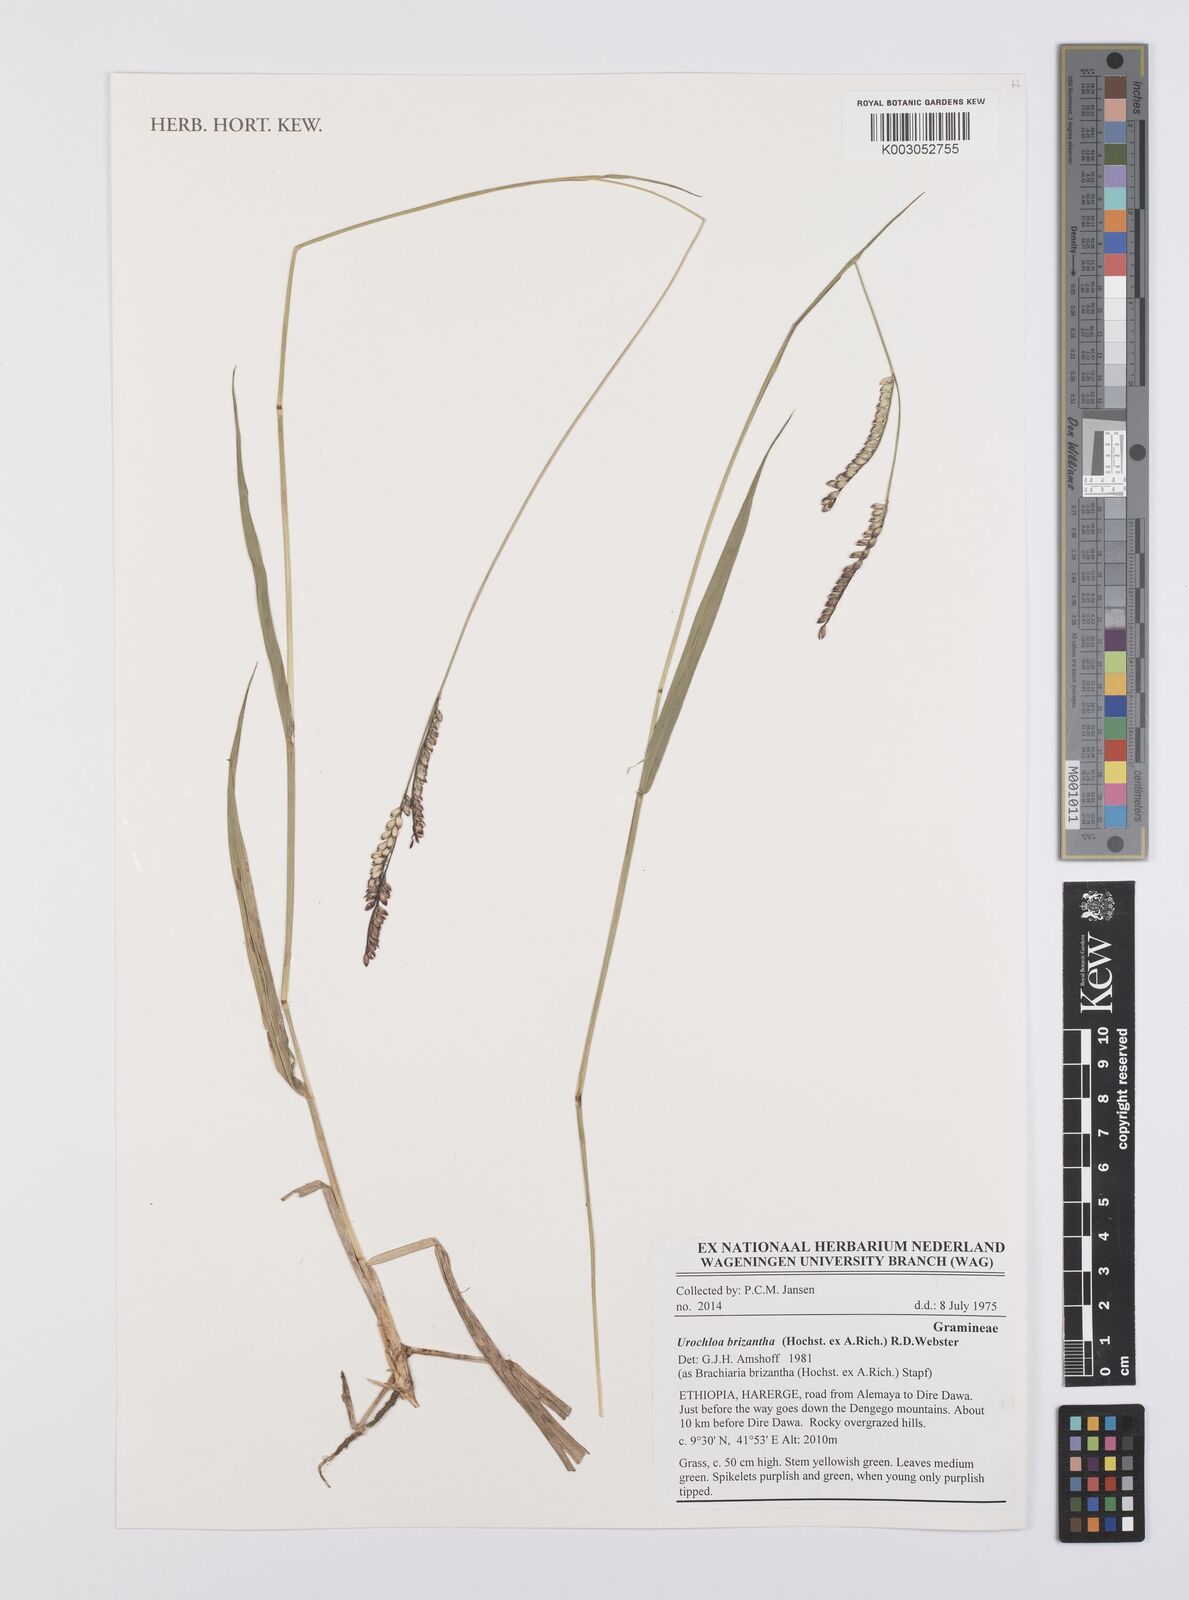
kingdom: Plantae
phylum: Tracheophyta
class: Liliopsida
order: Poales
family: Poaceae
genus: Urochloa
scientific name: Urochloa brizantha
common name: Palisade signalgrass
